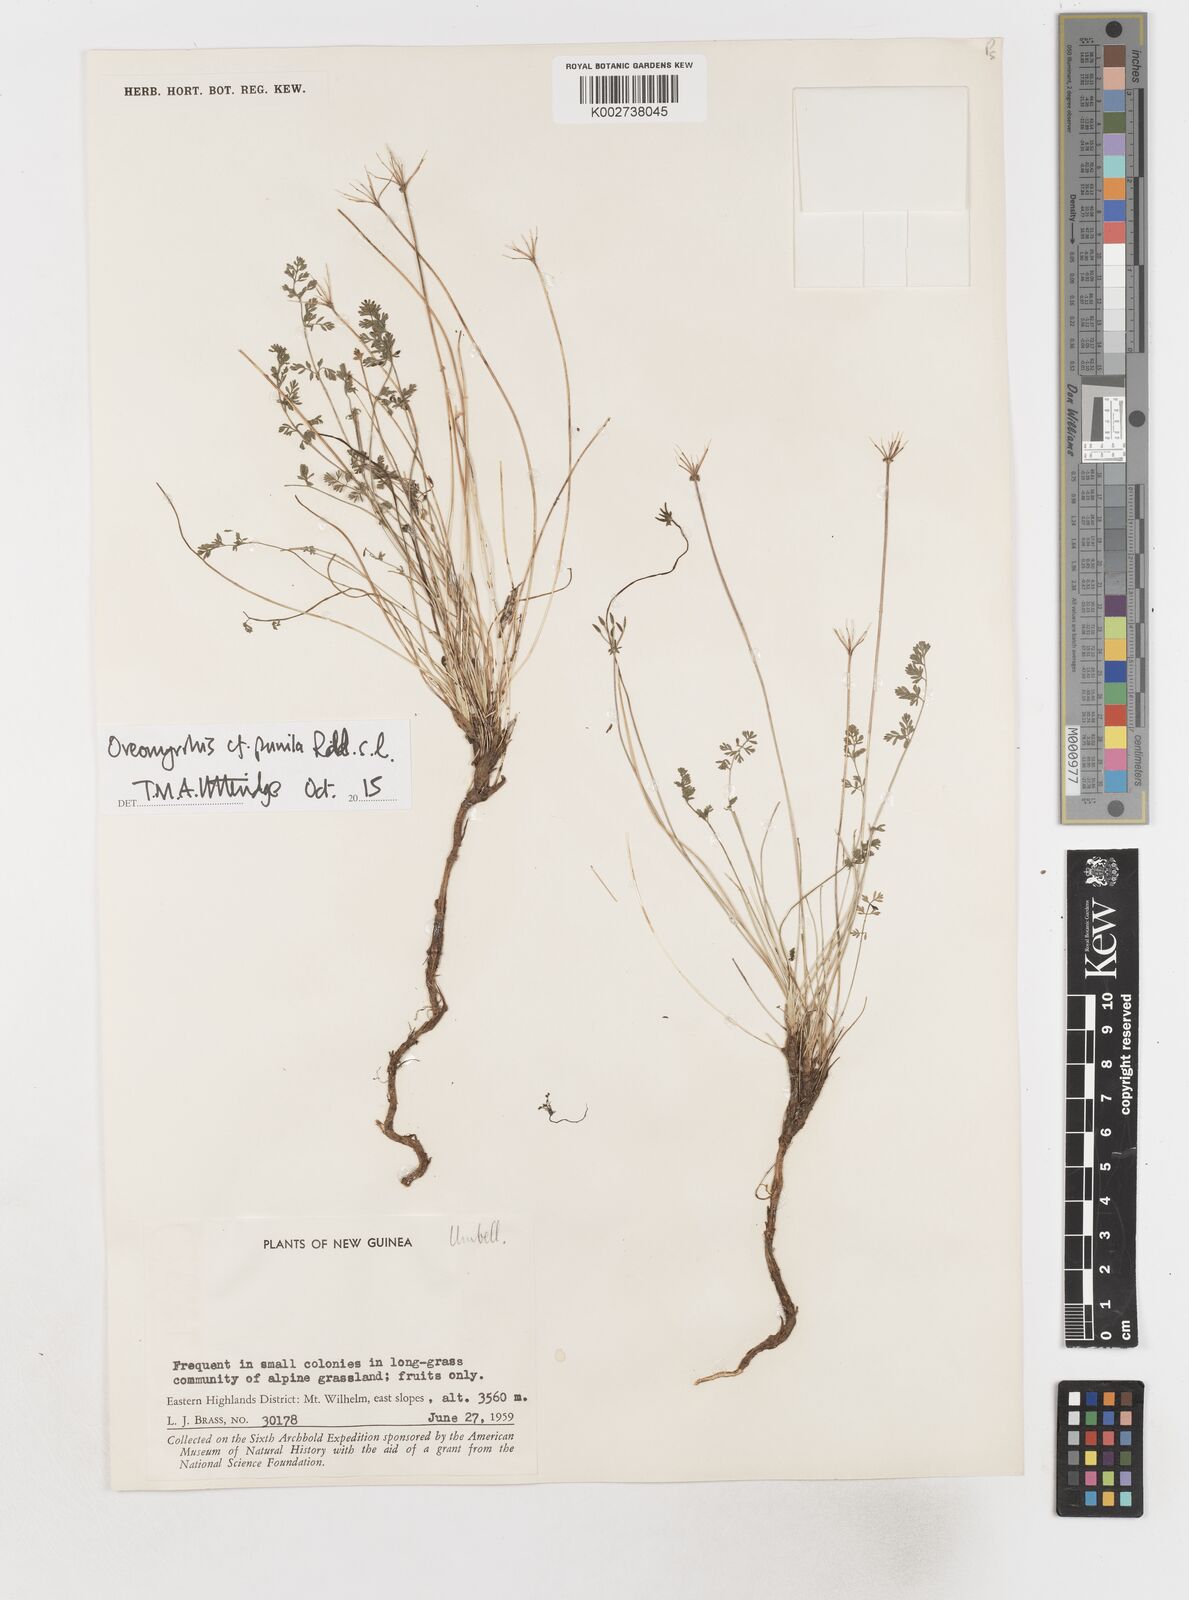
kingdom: Plantae
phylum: Tracheophyta
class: Magnoliopsida
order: Apiales
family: Apiaceae
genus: Chaerophyllum
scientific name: Chaerophyllum pumilum
